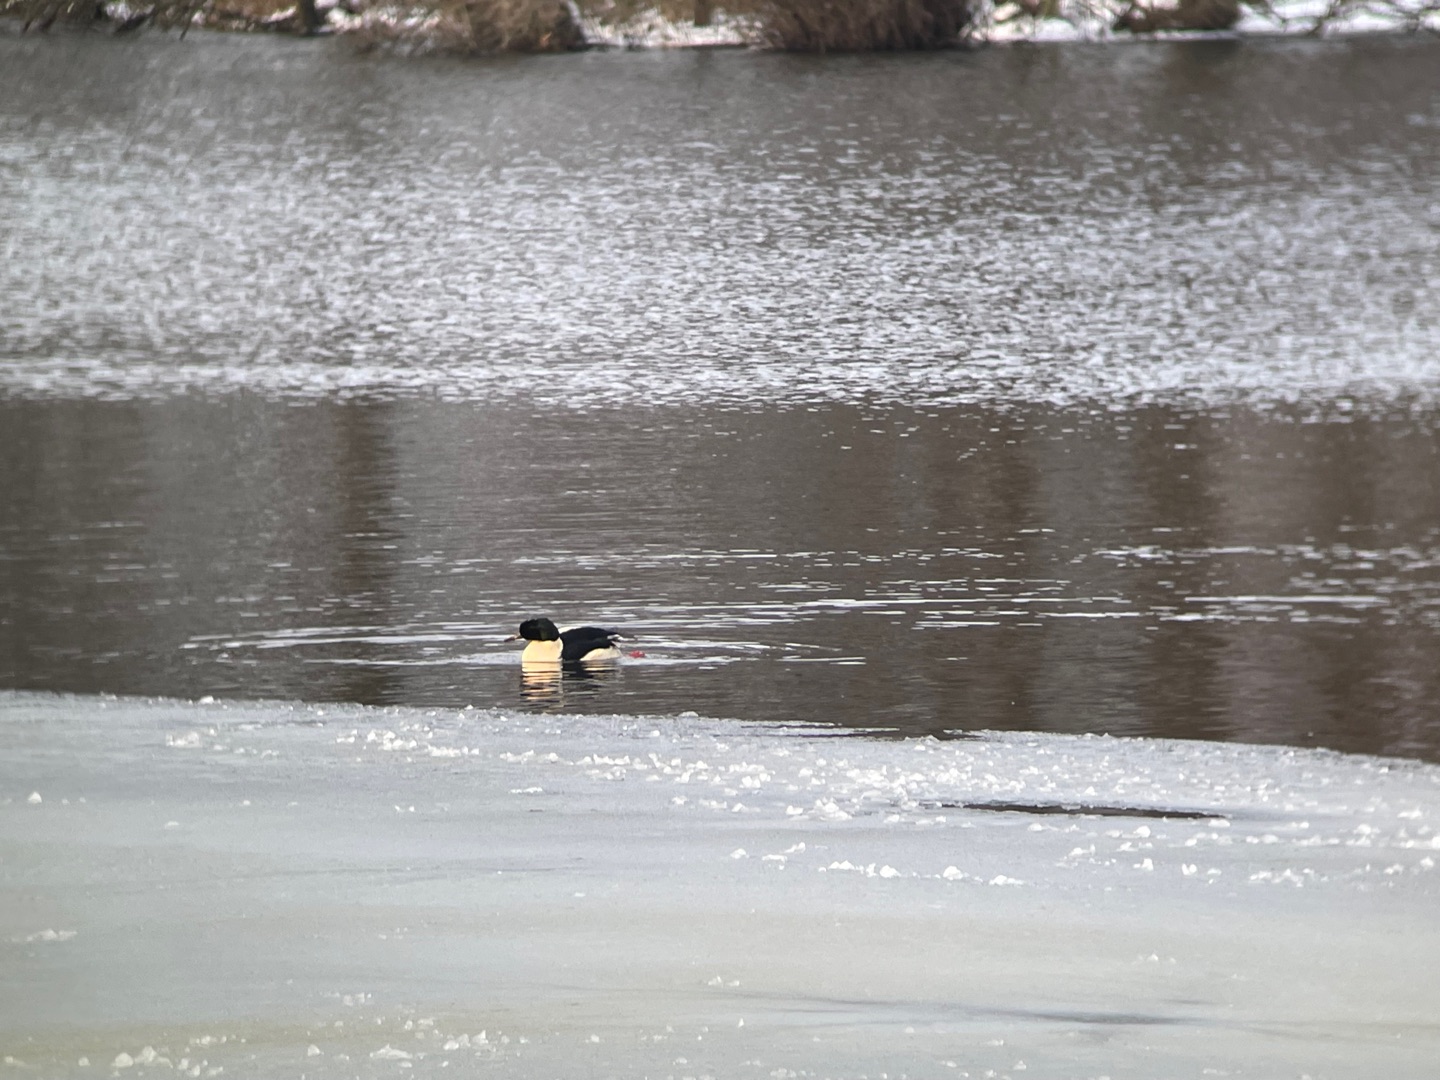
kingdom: Animalia
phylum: Chordata
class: Aves
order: Anseriformes
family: Anatidae
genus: Mergus
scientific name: Mergus merganser
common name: Stor skallesluger
